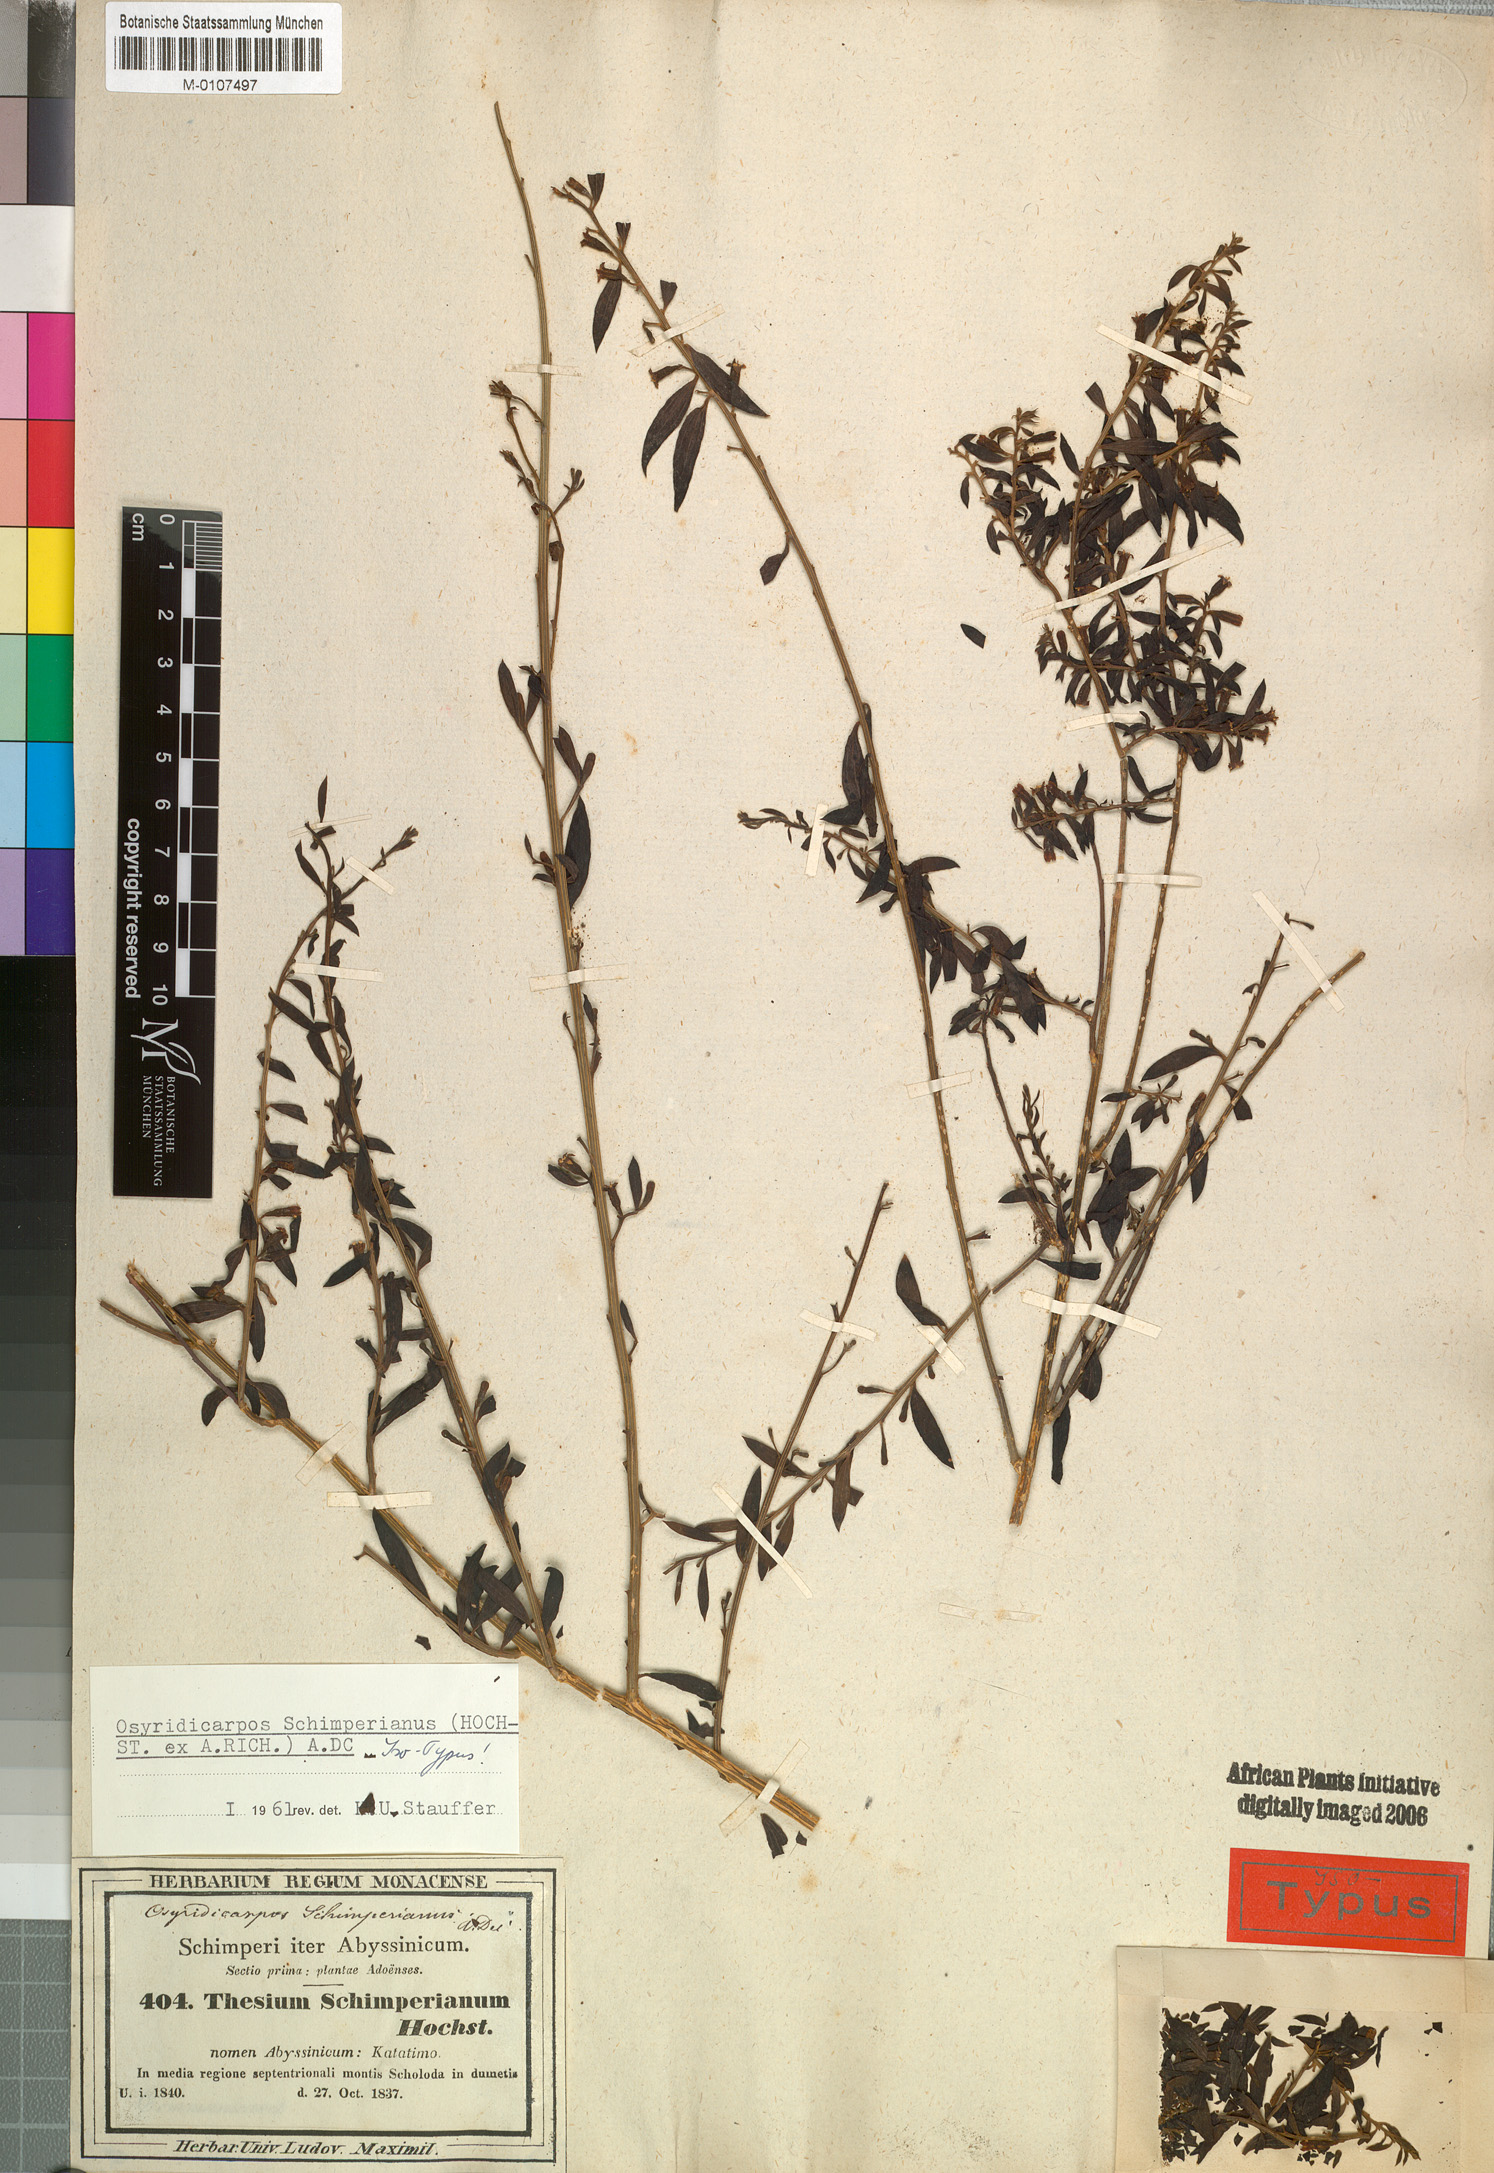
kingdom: Plantae
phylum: Tracheophyta
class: Magnoliopsida
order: Santalales
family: Thesiaceae
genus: Osyridicarpos
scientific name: Osyridicarpos schimperianus
